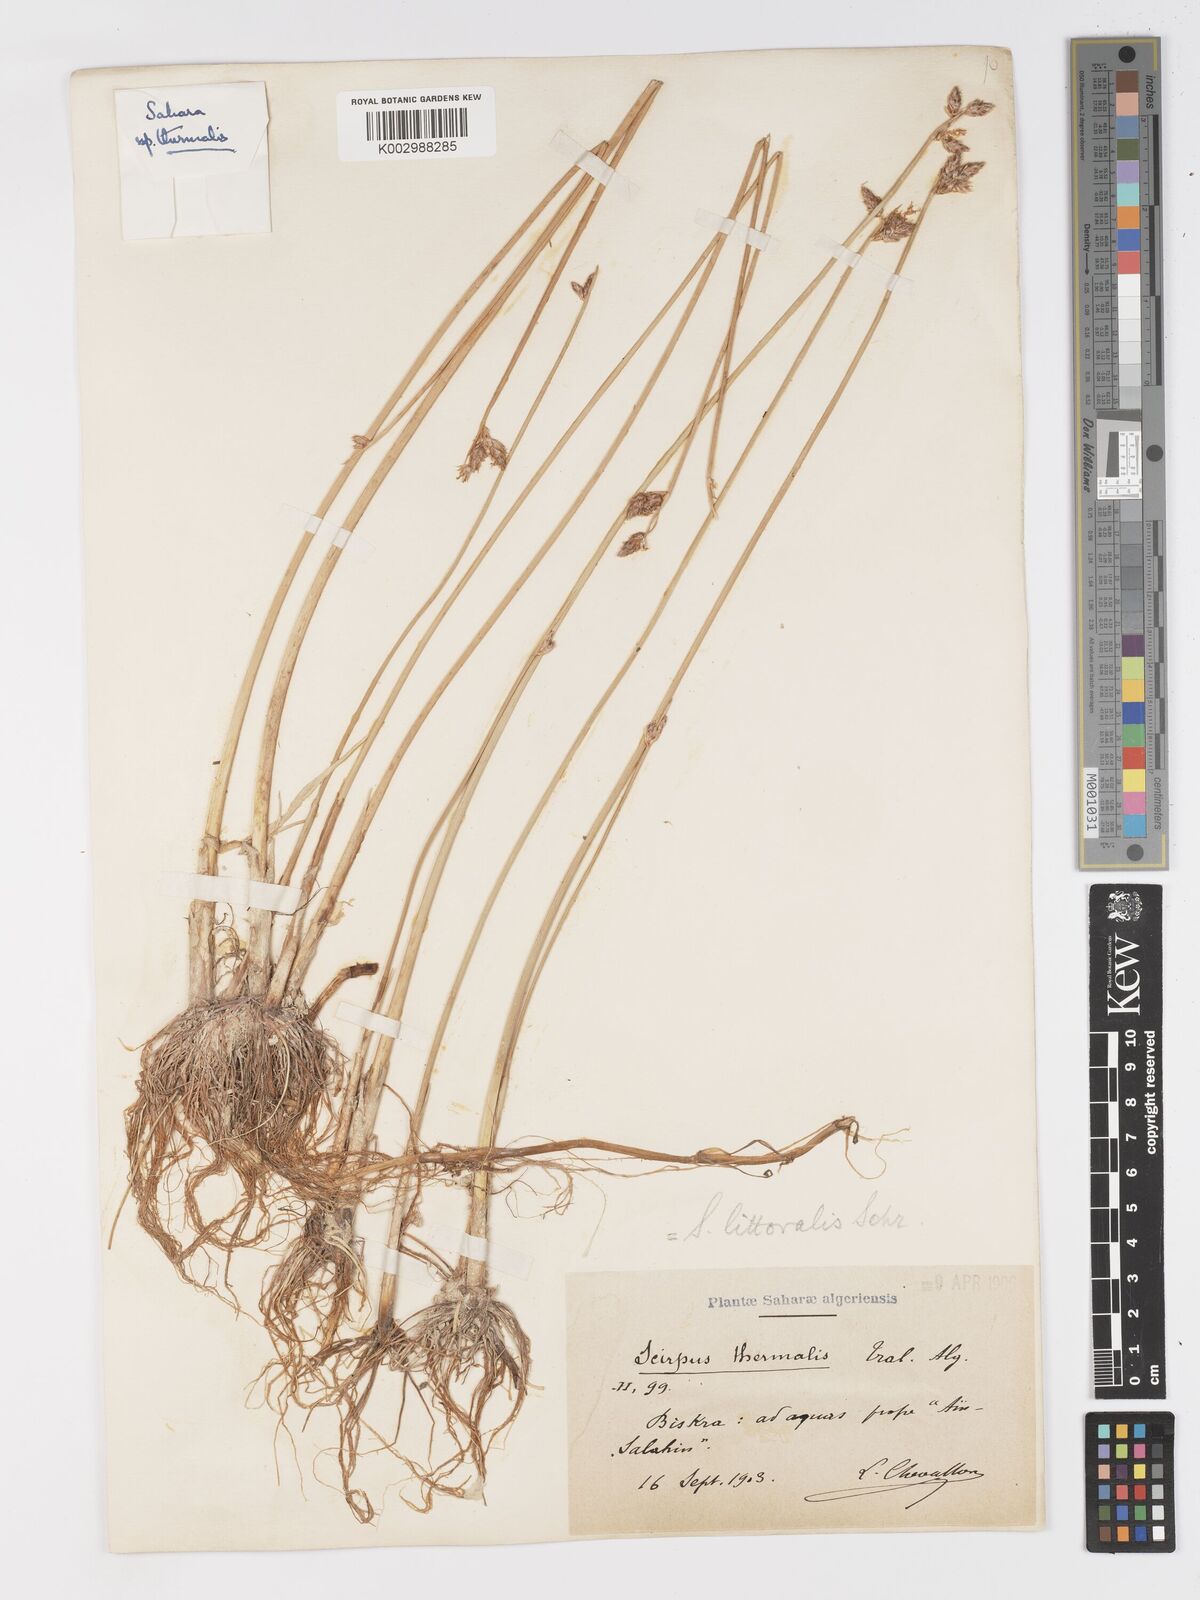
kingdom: Plantae
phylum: Tracheophyta
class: Liliopsida
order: Poales
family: Cyperaceae
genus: Schoenoplectus
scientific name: Schoenoplectus litoralis
